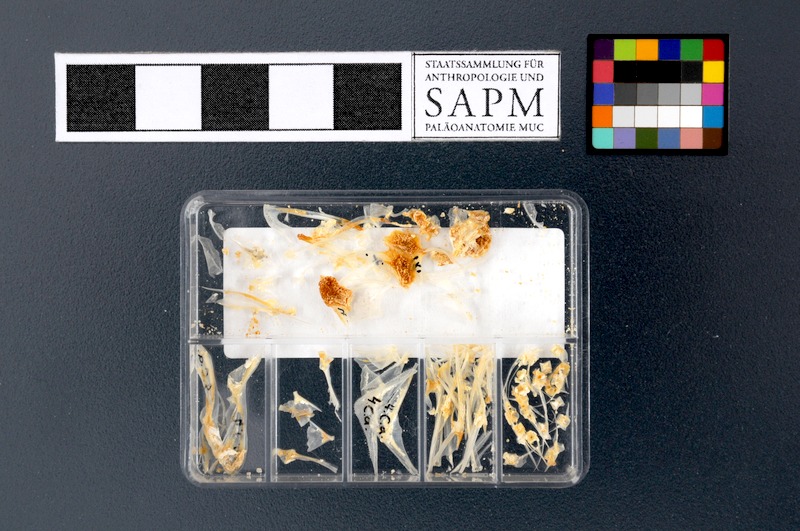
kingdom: Animalia
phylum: Chordata
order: Perciformes
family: Caproidae
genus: Capros
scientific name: Capros aper
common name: Boarfish
